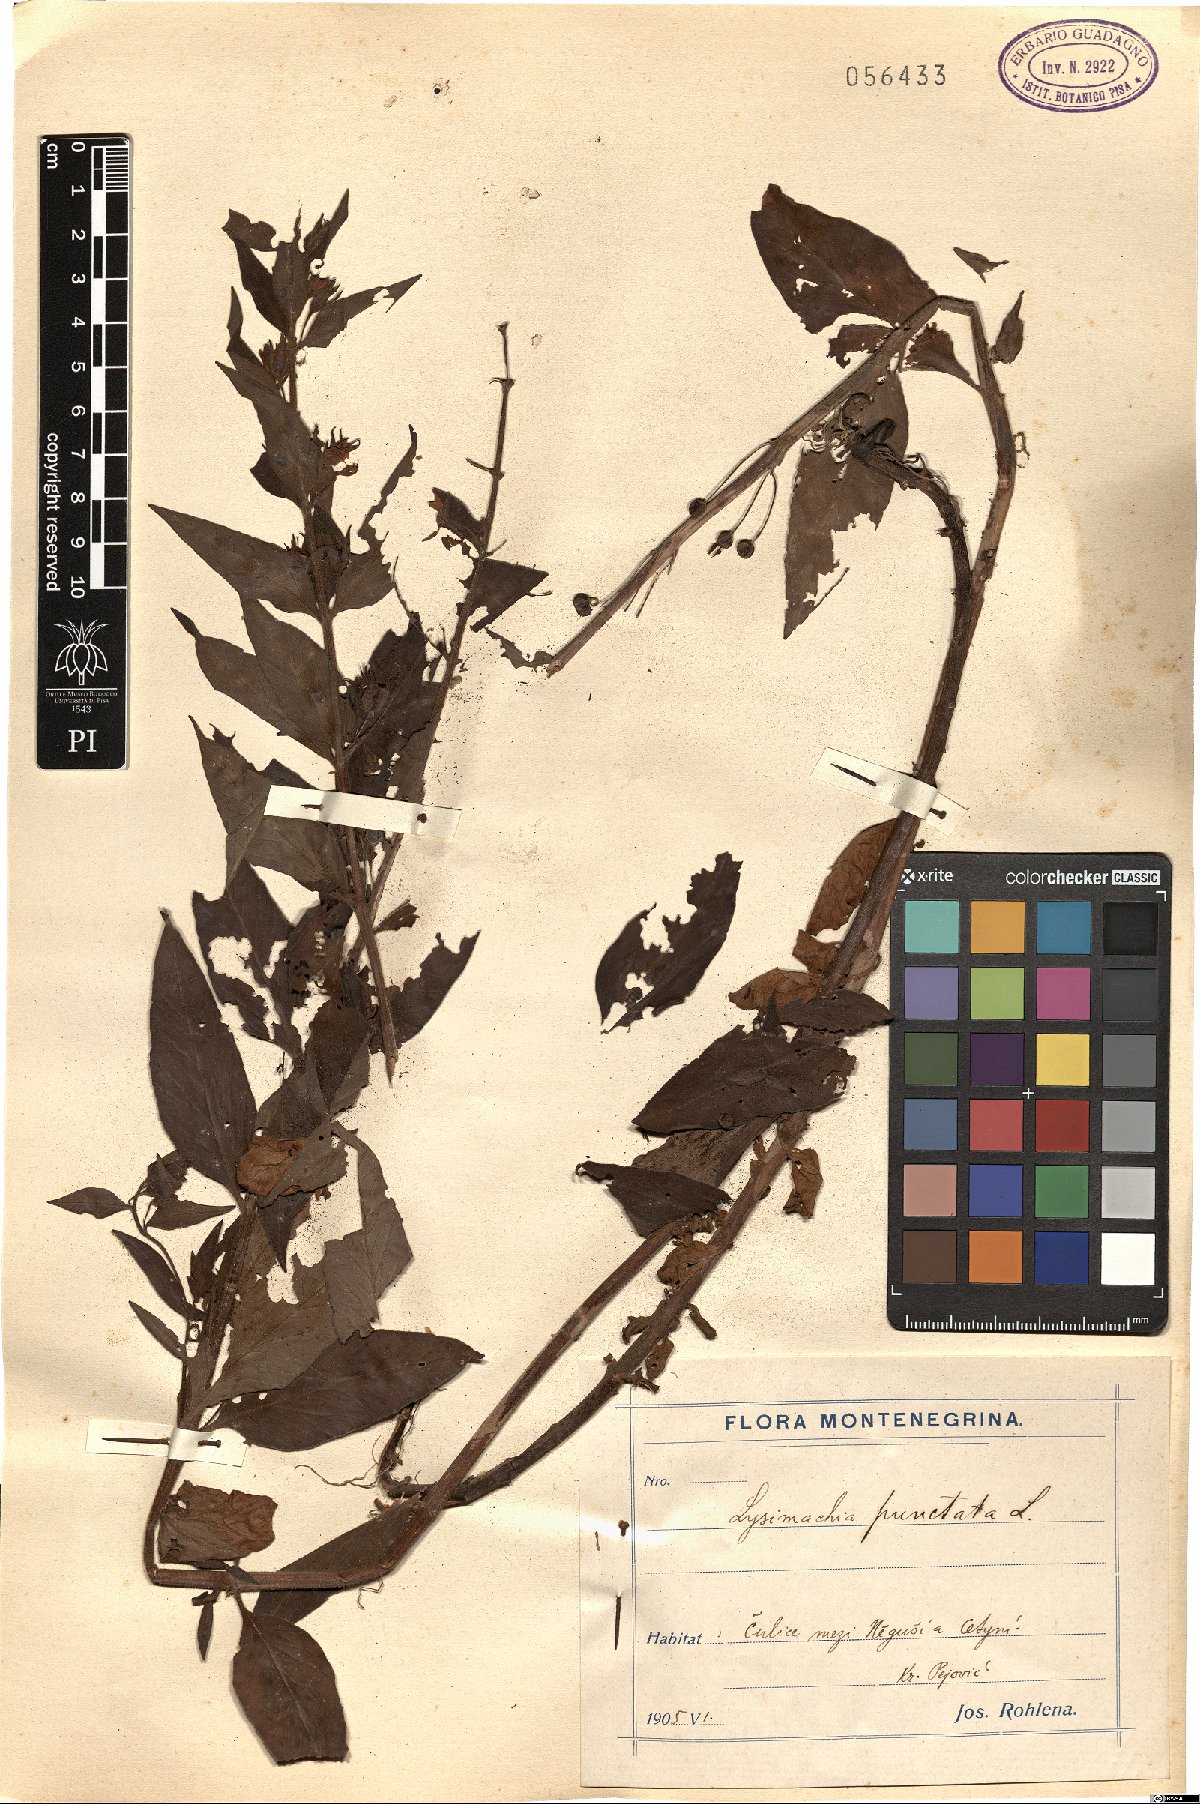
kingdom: Plantae
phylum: Tracheophyta
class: Magnoliopsida
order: Ericales
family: Primulaceae
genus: Lysimachia
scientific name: Lysimachia punctata
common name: Dotted loosestrife
